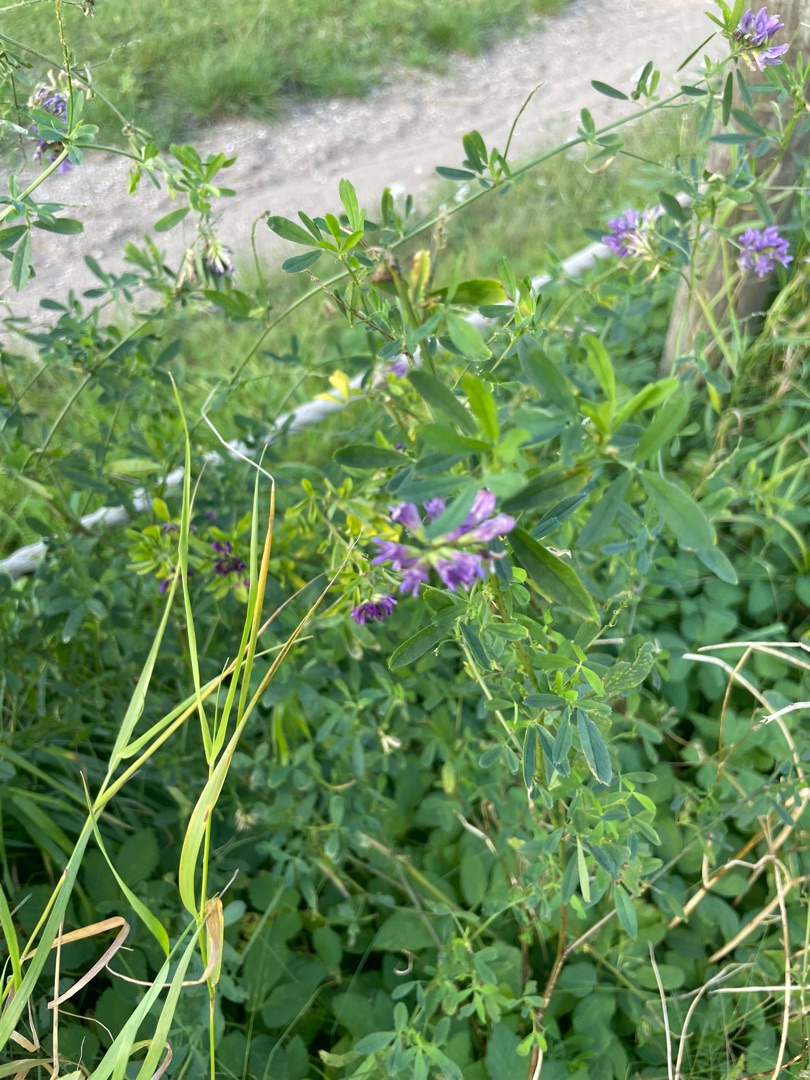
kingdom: Plantae
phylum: Tracheophyta
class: Magnoliopsida
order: Fabales
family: Fabaceae
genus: Medicago
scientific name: Medicago sativa
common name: Lucerne
